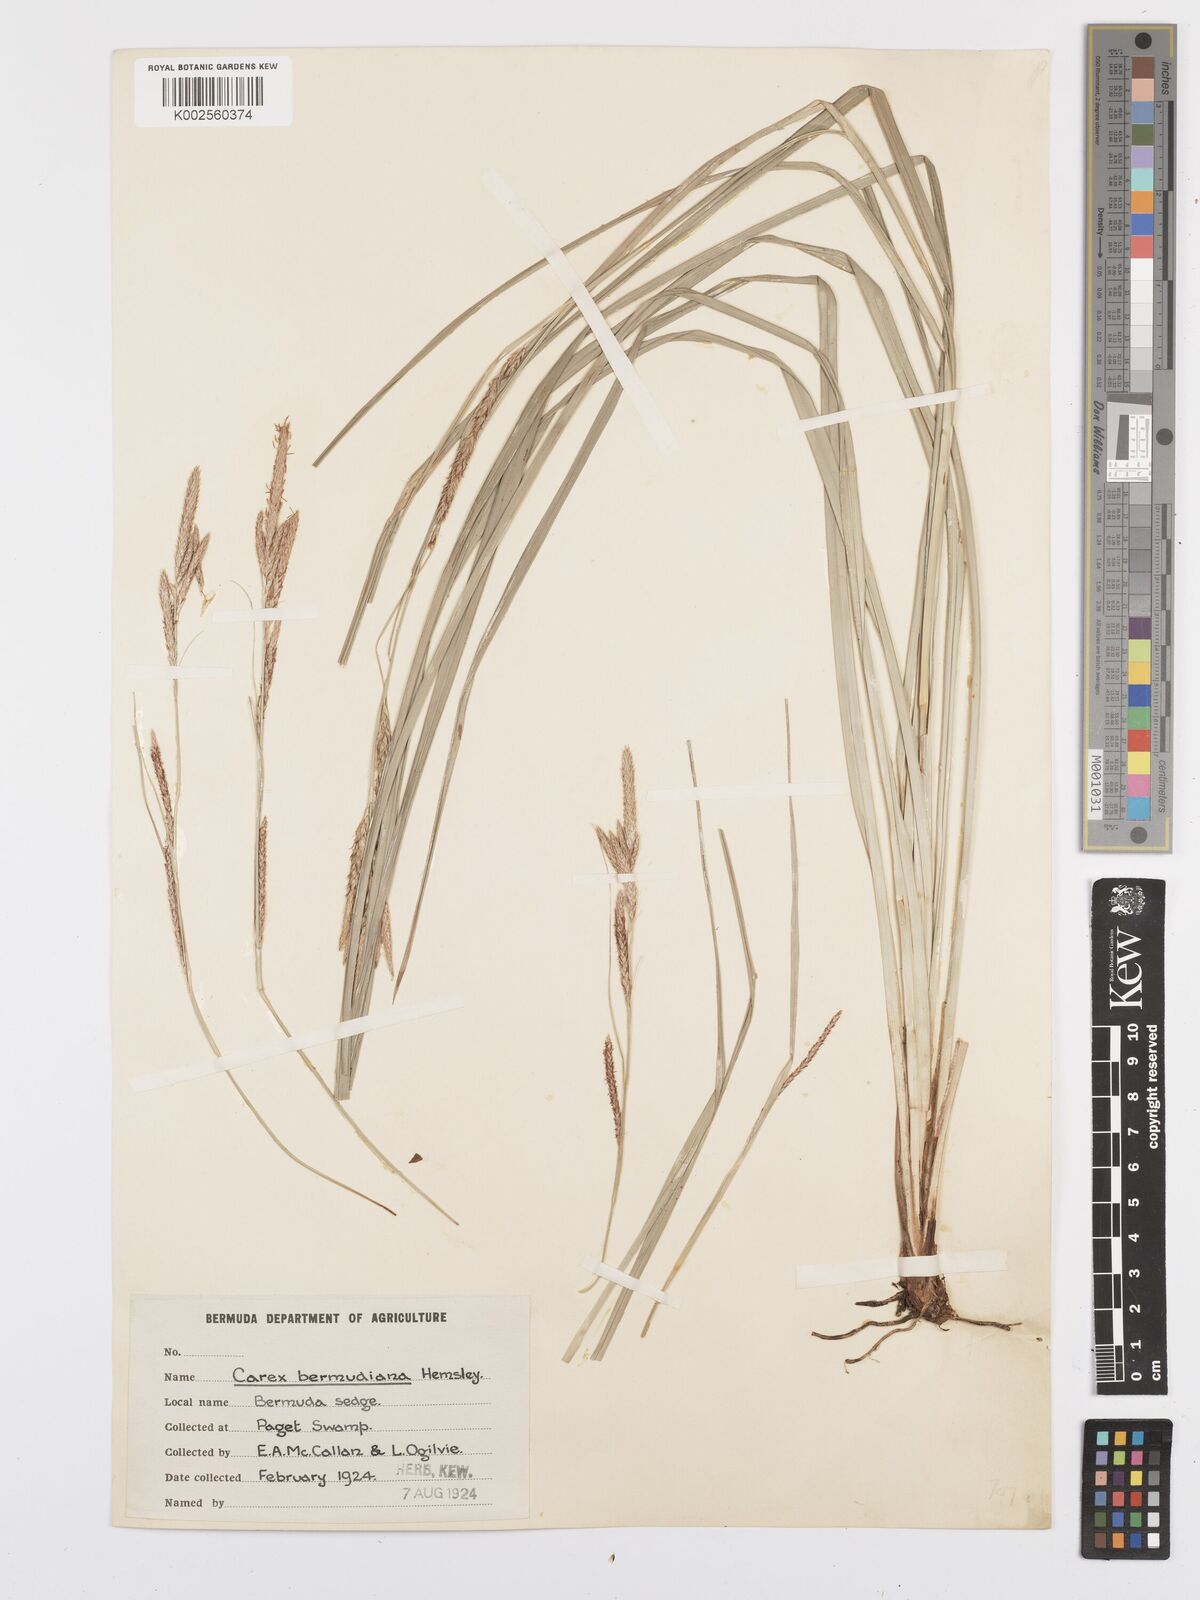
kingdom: Plantae
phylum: Tracheophyta
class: Liliopsida
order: Poales
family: Cyperaceae
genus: Carex
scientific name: Carex bermudiana
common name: Bermuda sedge
